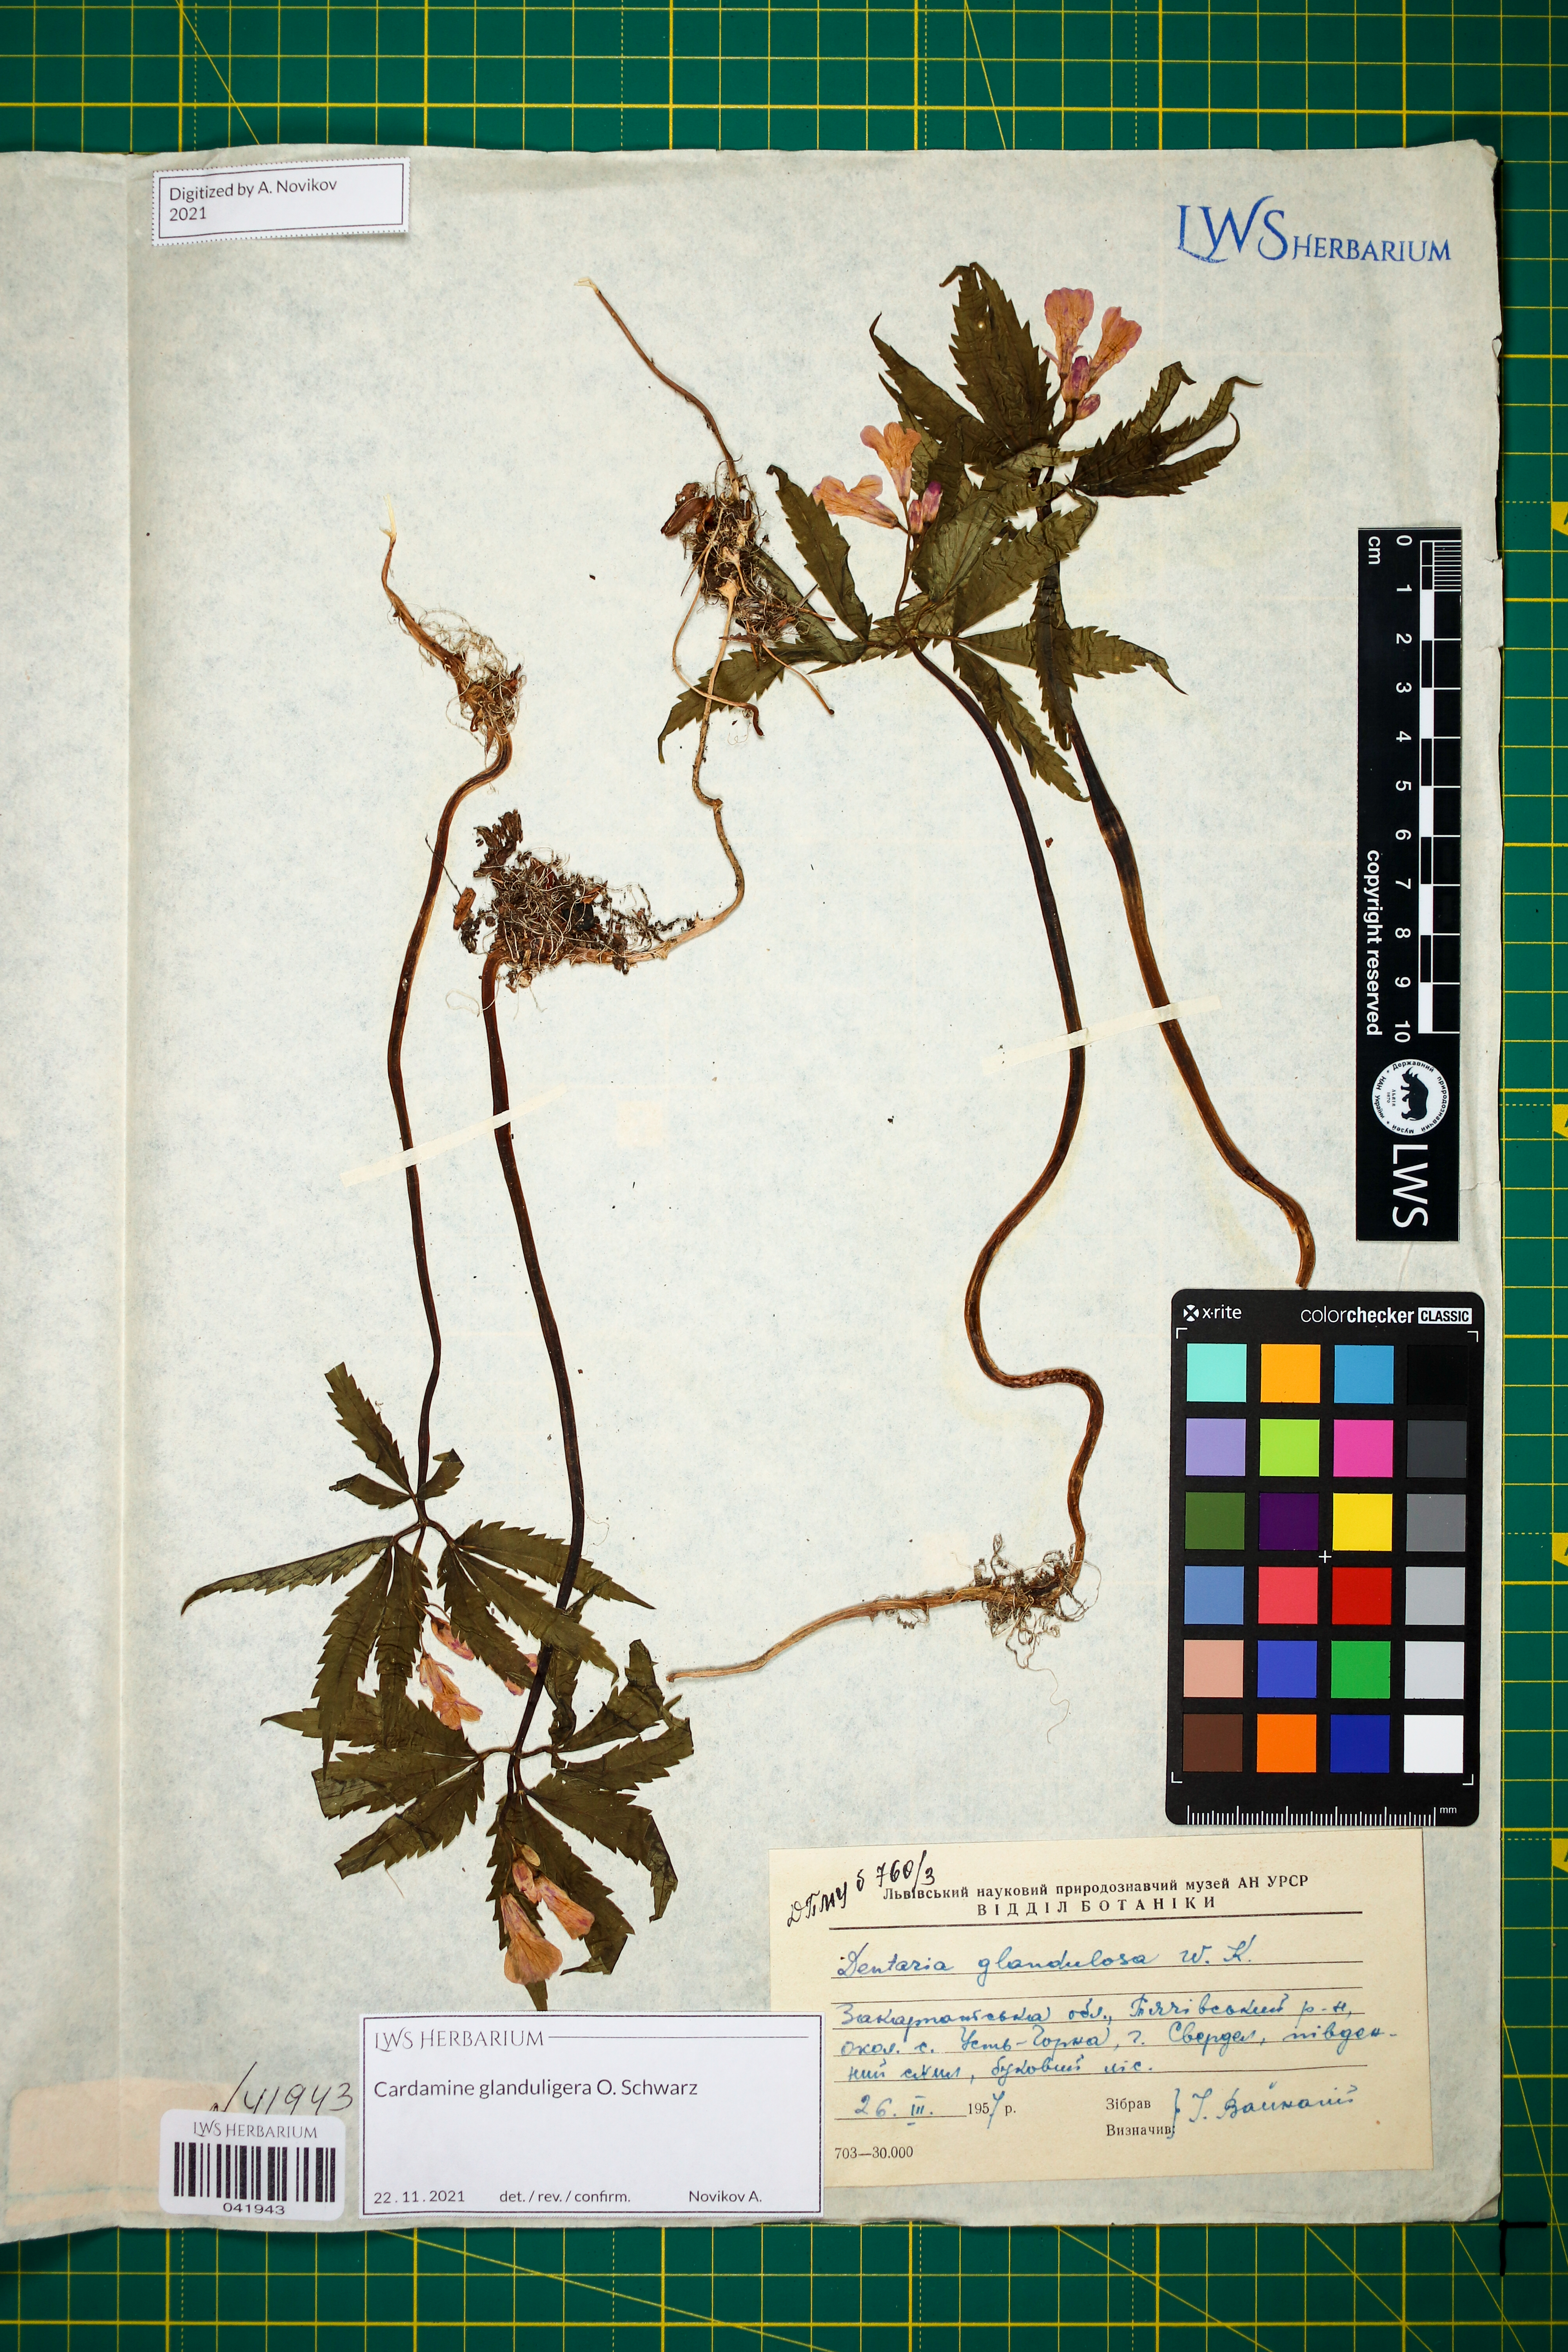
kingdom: Plantae
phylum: Tracheophyta
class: Magnoliopsida
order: Brassicales
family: Brassicaceae
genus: Cardamine
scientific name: Cardamine glanduligera
